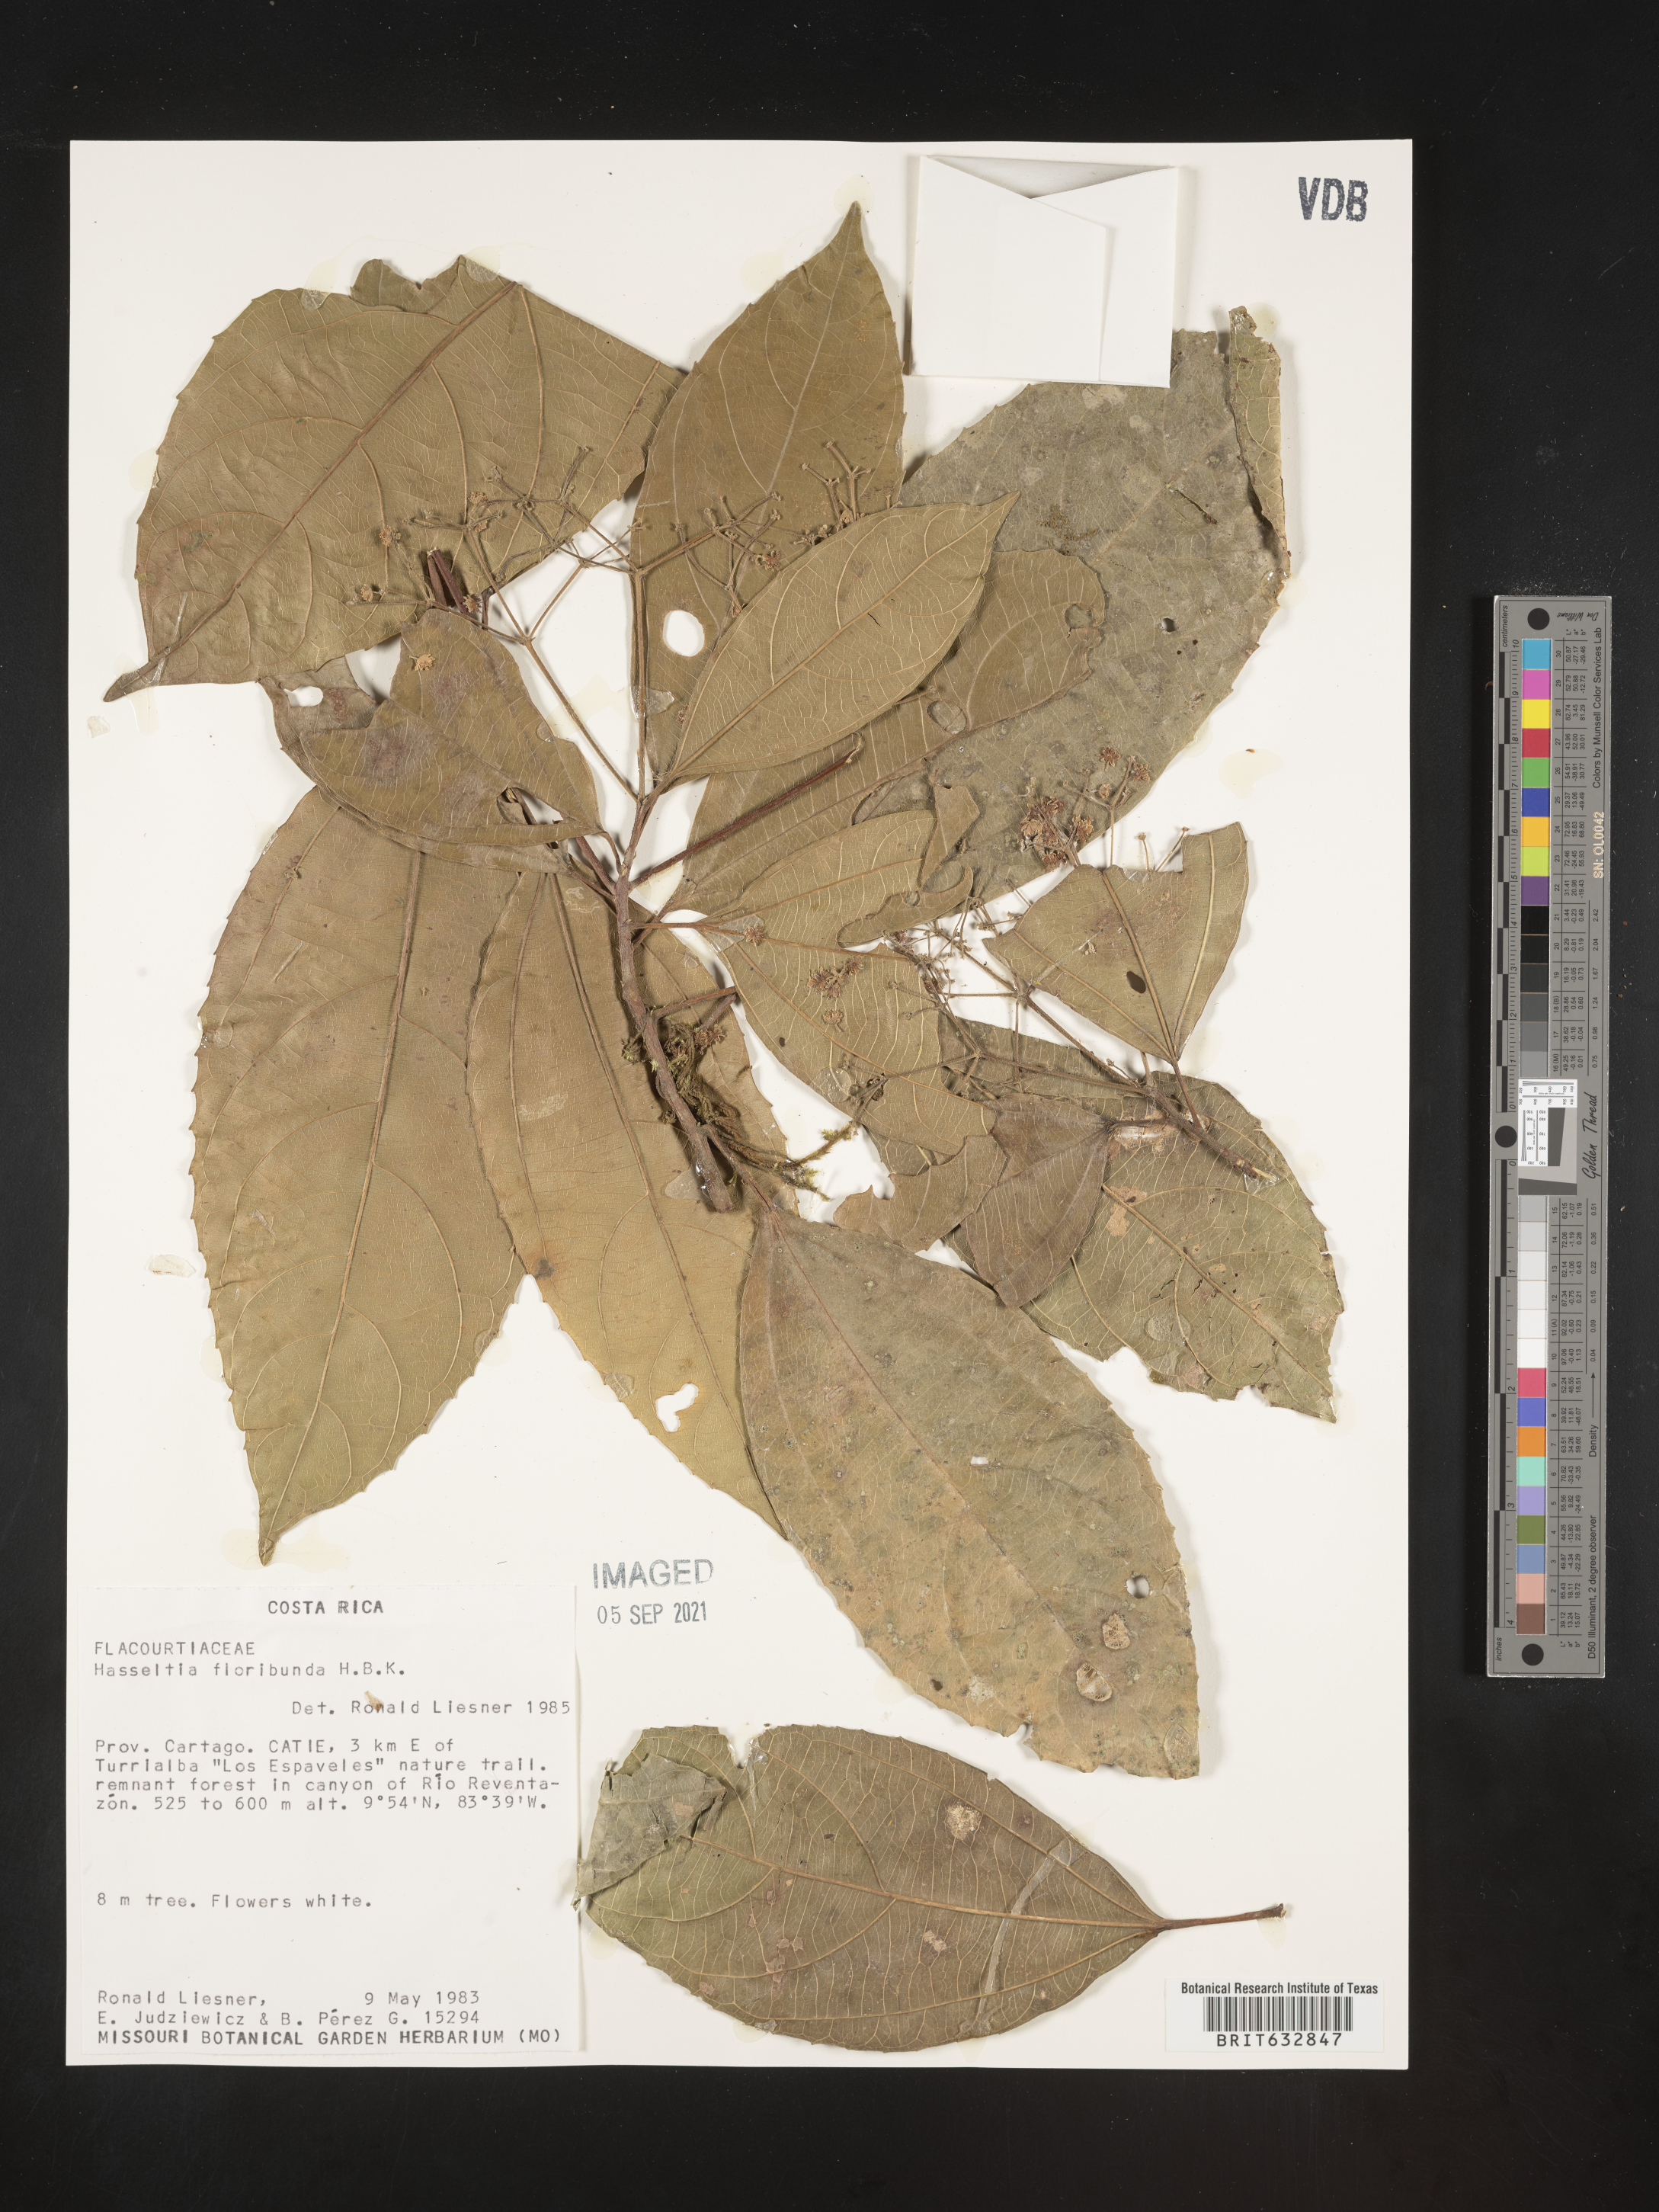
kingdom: Plantae
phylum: Tracheophyta
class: Magnoliopsida
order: Malpighiales
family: Salicaceae
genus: Hasseltia
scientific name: Hasseltia
